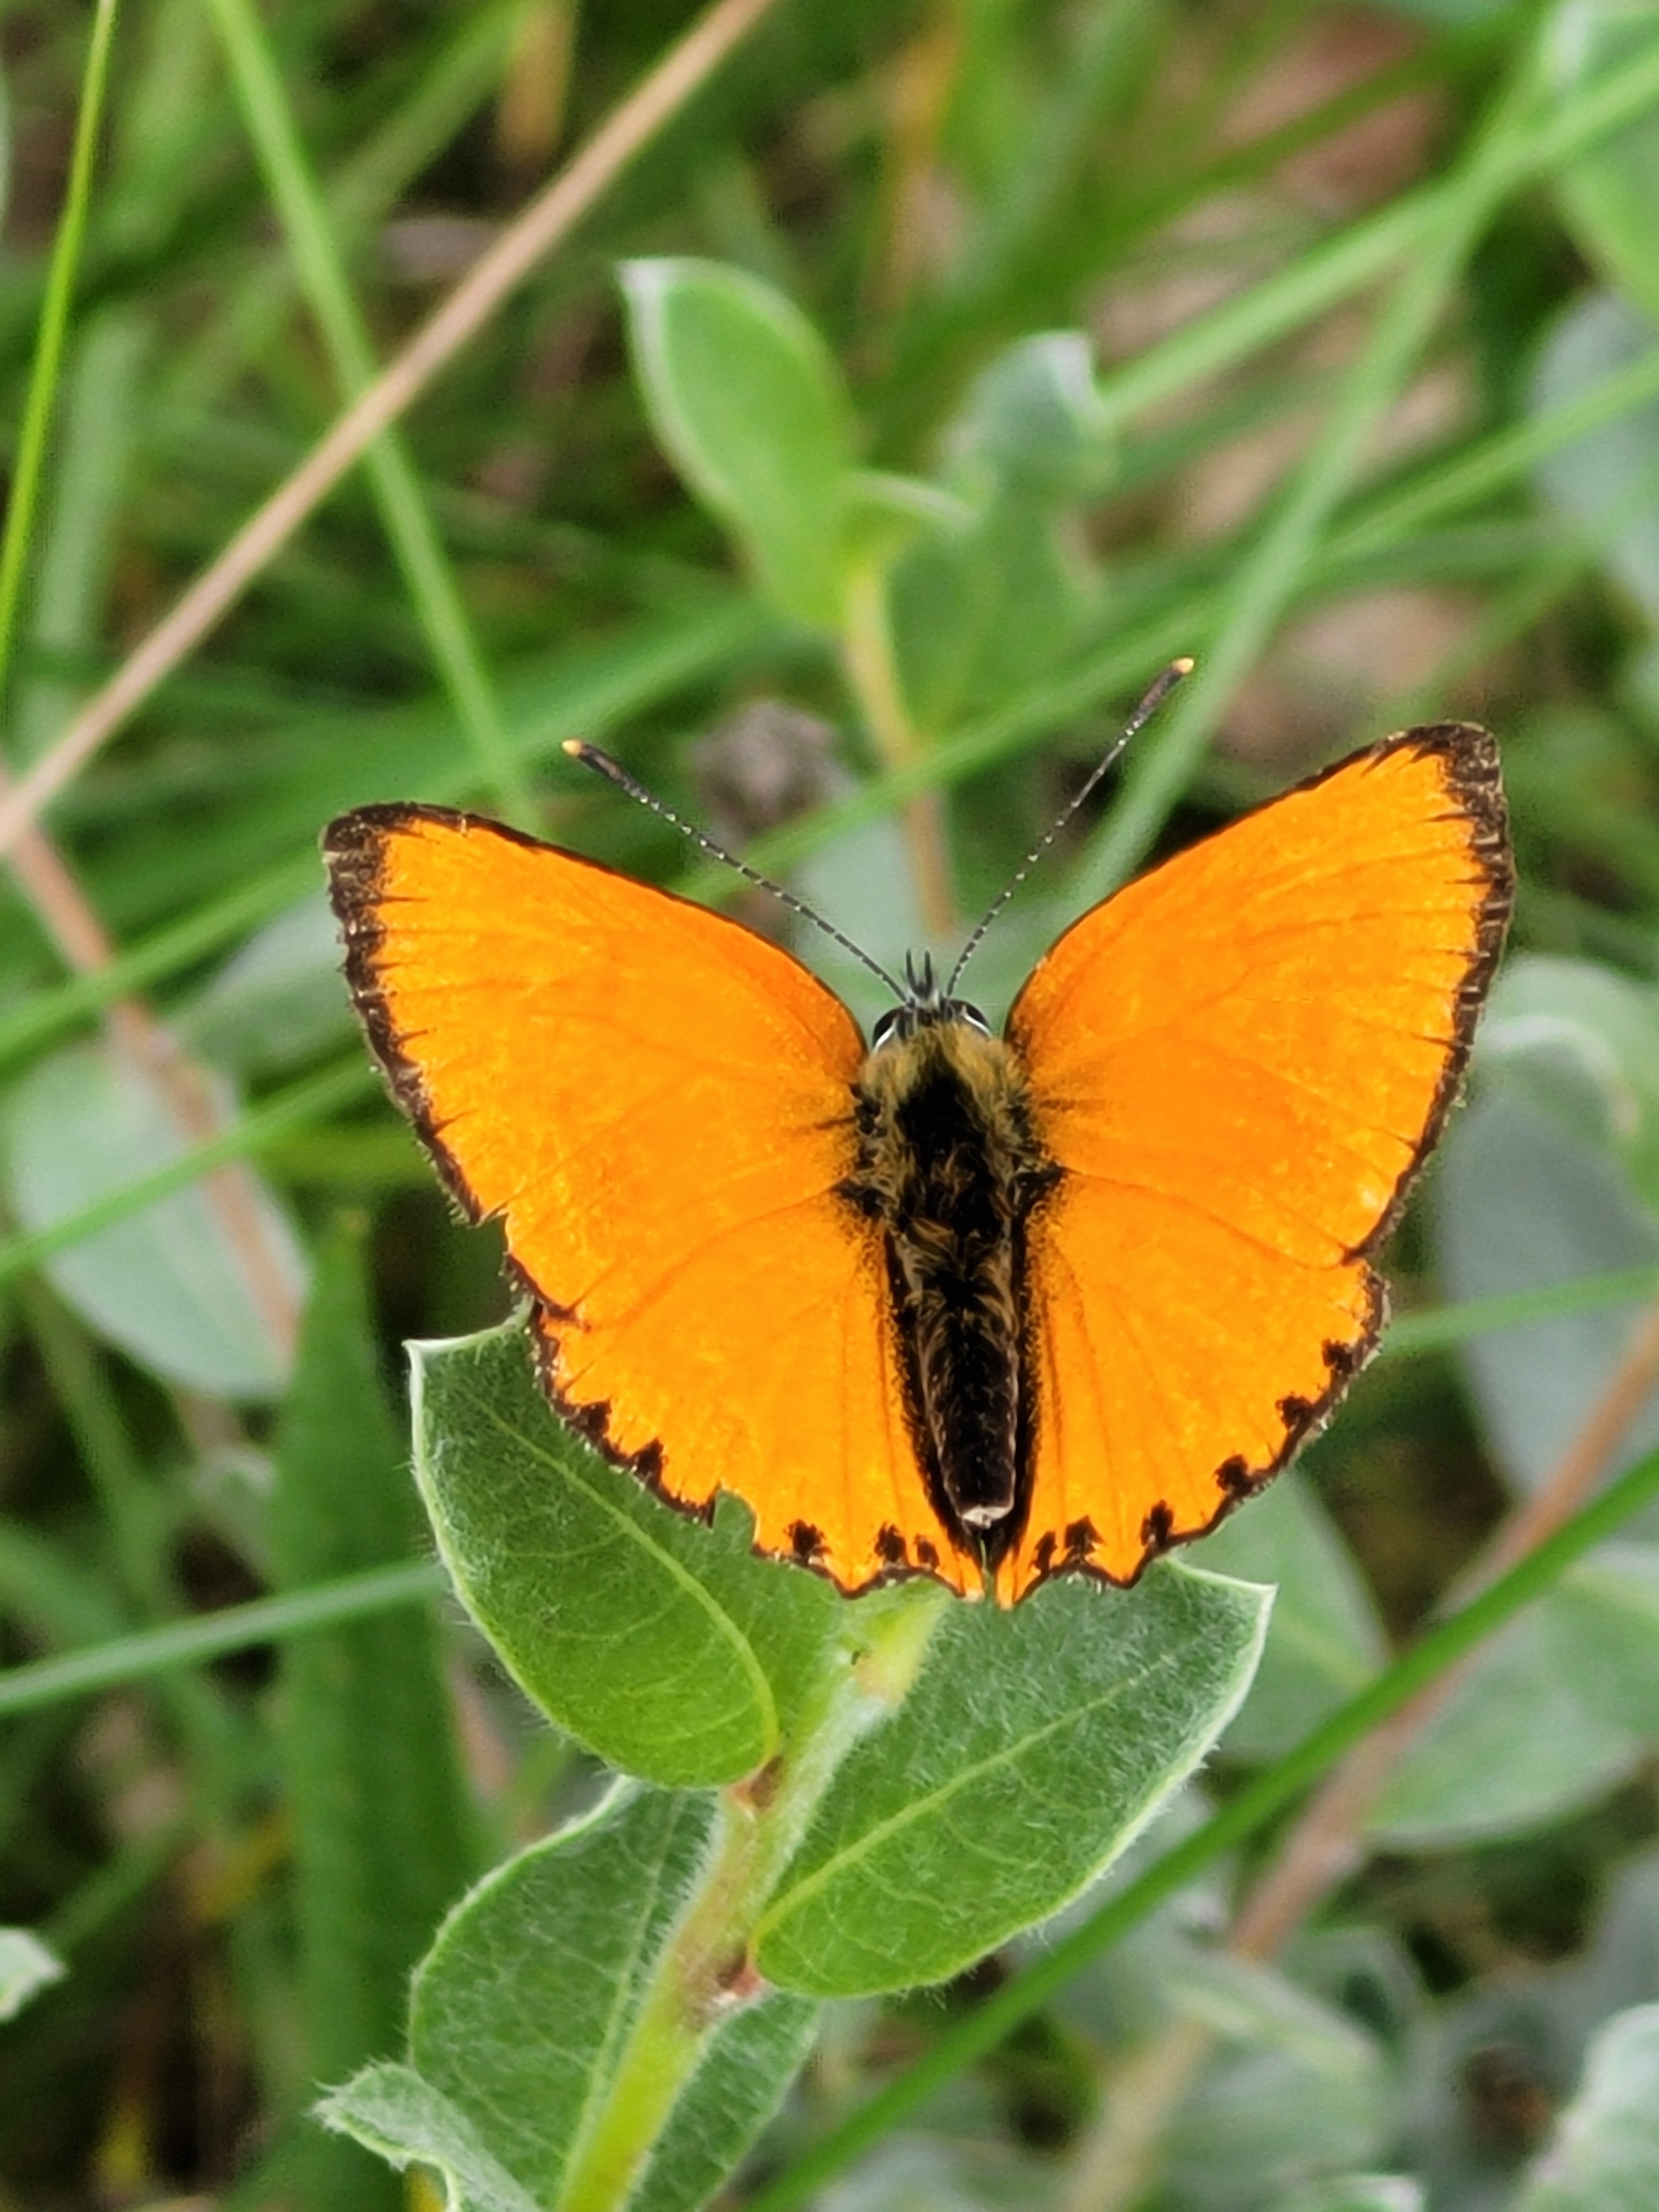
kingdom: Animalia
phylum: Arthropoda
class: Insecta
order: Lepidoptera
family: Lycaenidae
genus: Lycaena
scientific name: Lycaena virgaureae
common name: Dukatsommerfugl
